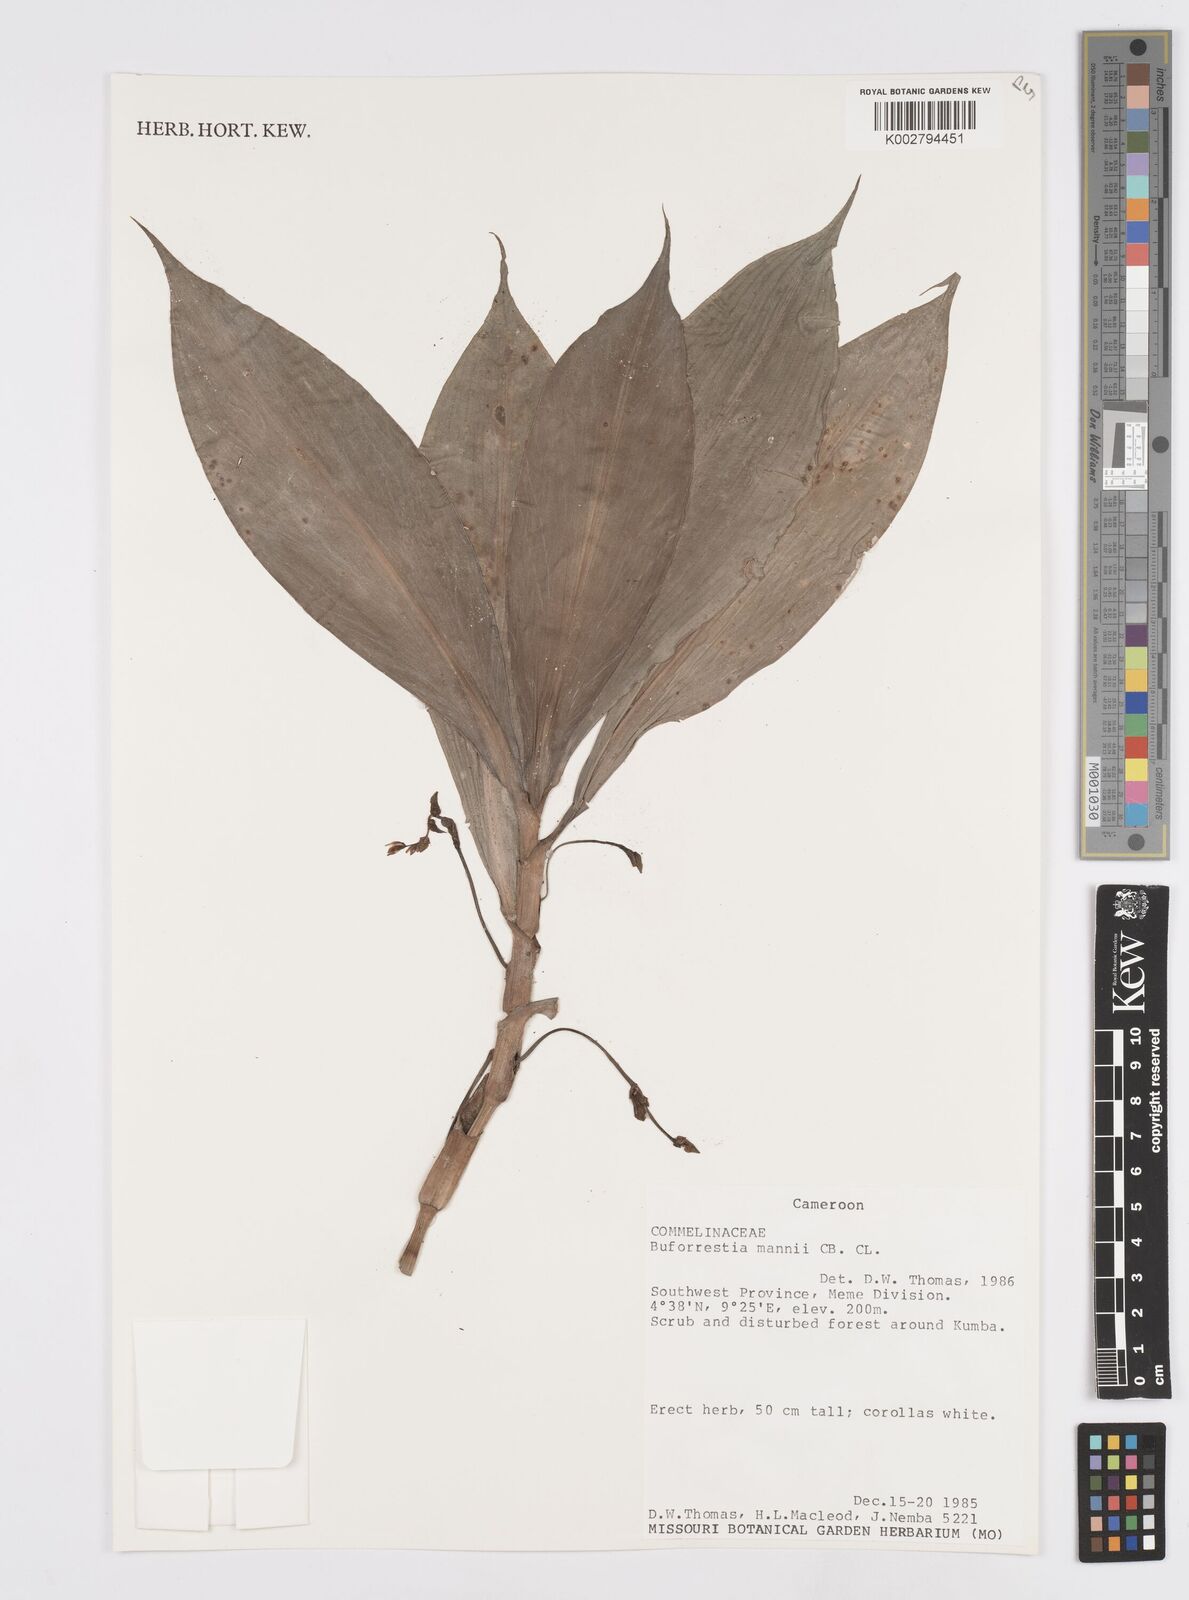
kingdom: Plantae
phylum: Tracheophyta
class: Liliopsida
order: Commelinales
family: Commelinaceae
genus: Buforrestia
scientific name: Buforrestia mannii
